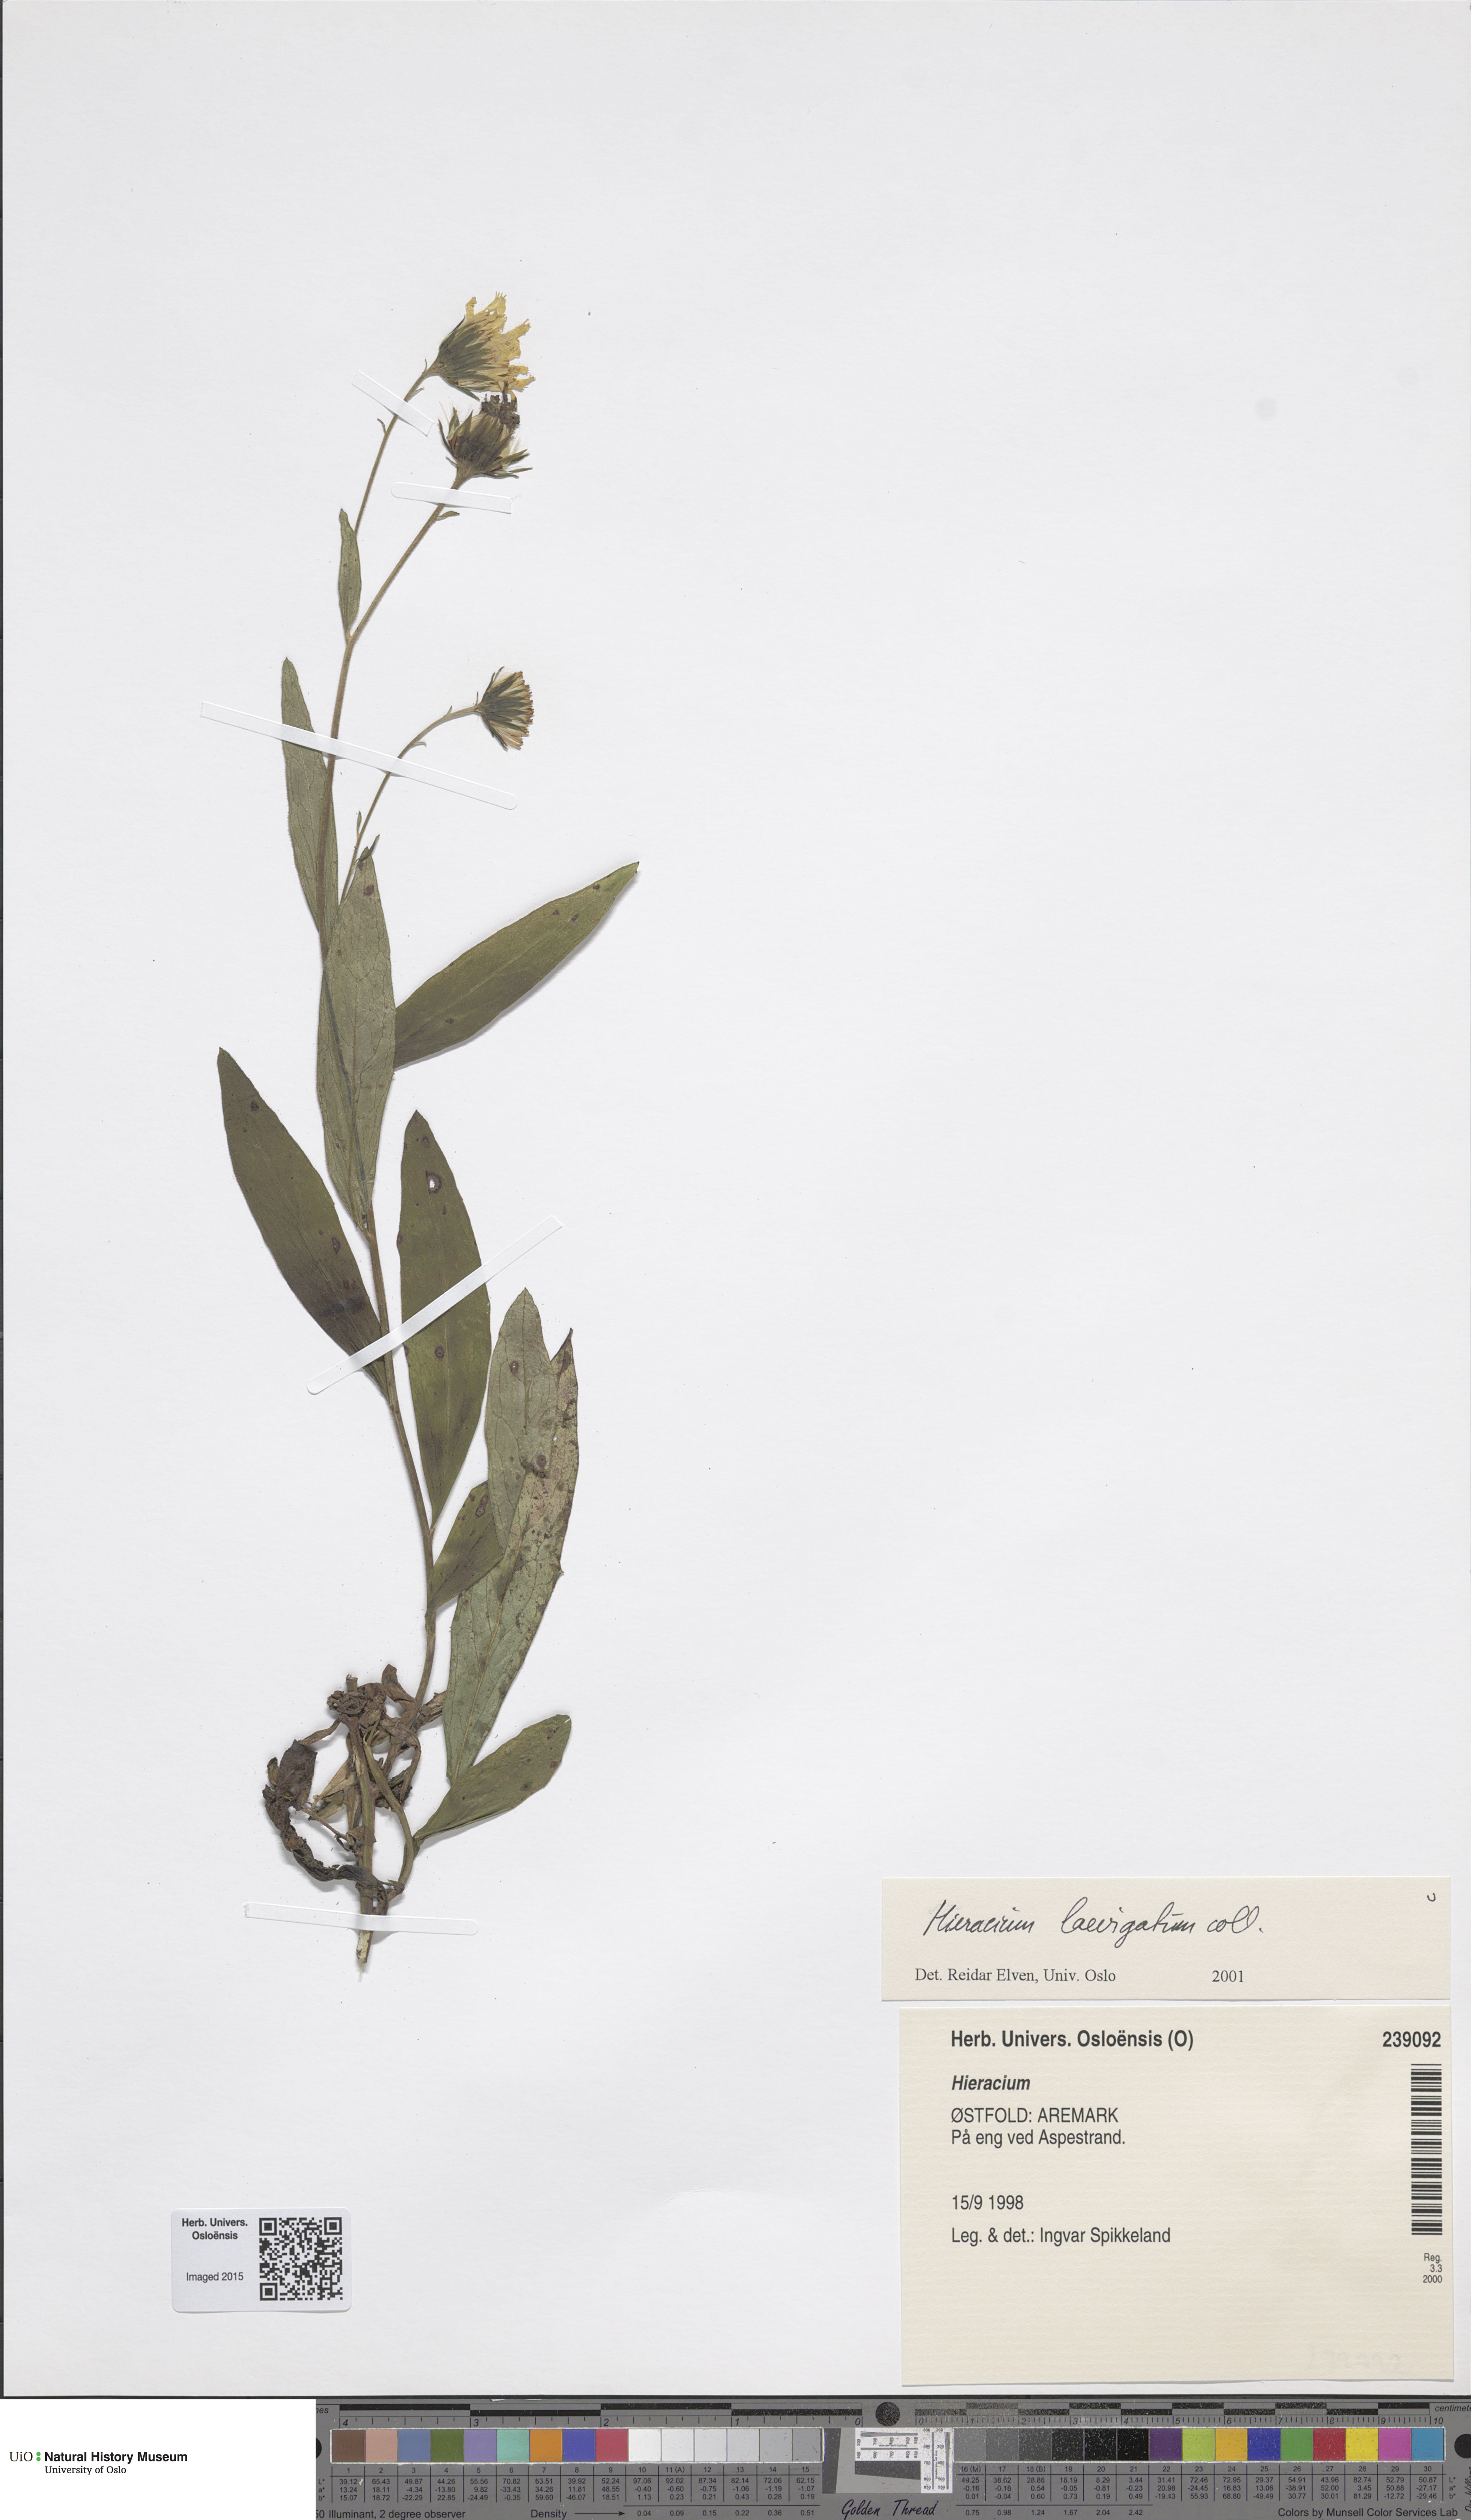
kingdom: Plantae
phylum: Tracheophyta
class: Magnoliopsida
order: Asterales
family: Asteraceae
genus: Hieracium
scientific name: Hieracium laevigatum
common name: Smooth hawkweed
